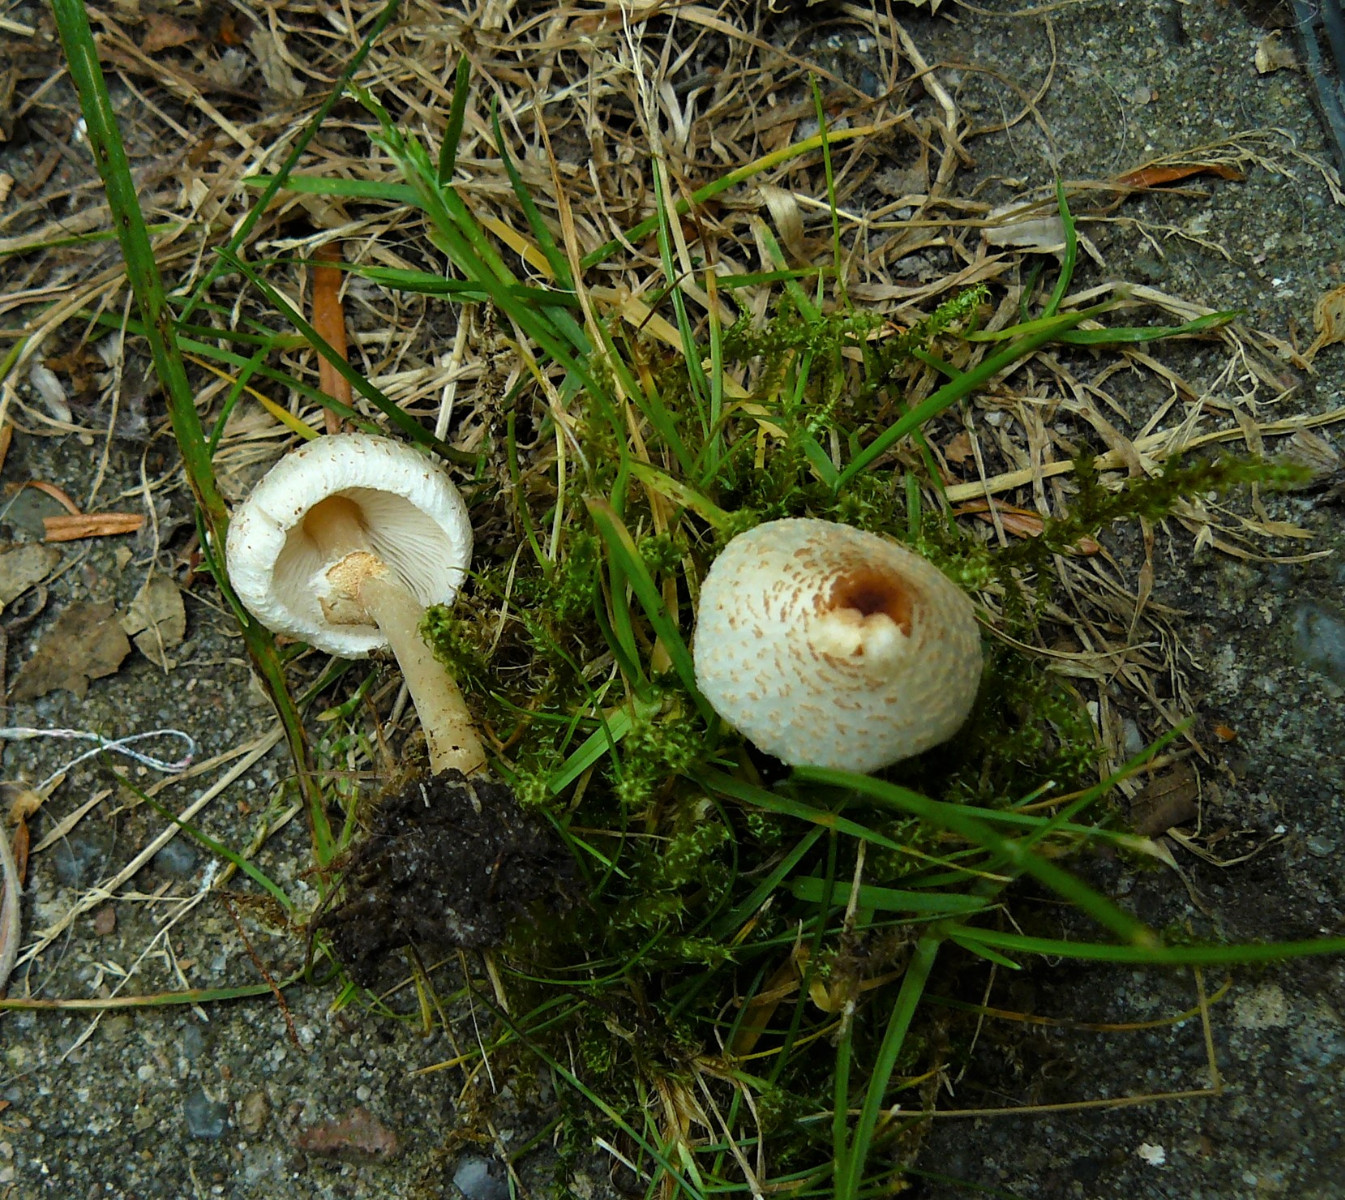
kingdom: Fungi
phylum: Basidiomycota
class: Agaricomycetes
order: Agaricales
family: Agaricaceae
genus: Lepiota
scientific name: Lepiota cristata
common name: stinkende parasolhat
